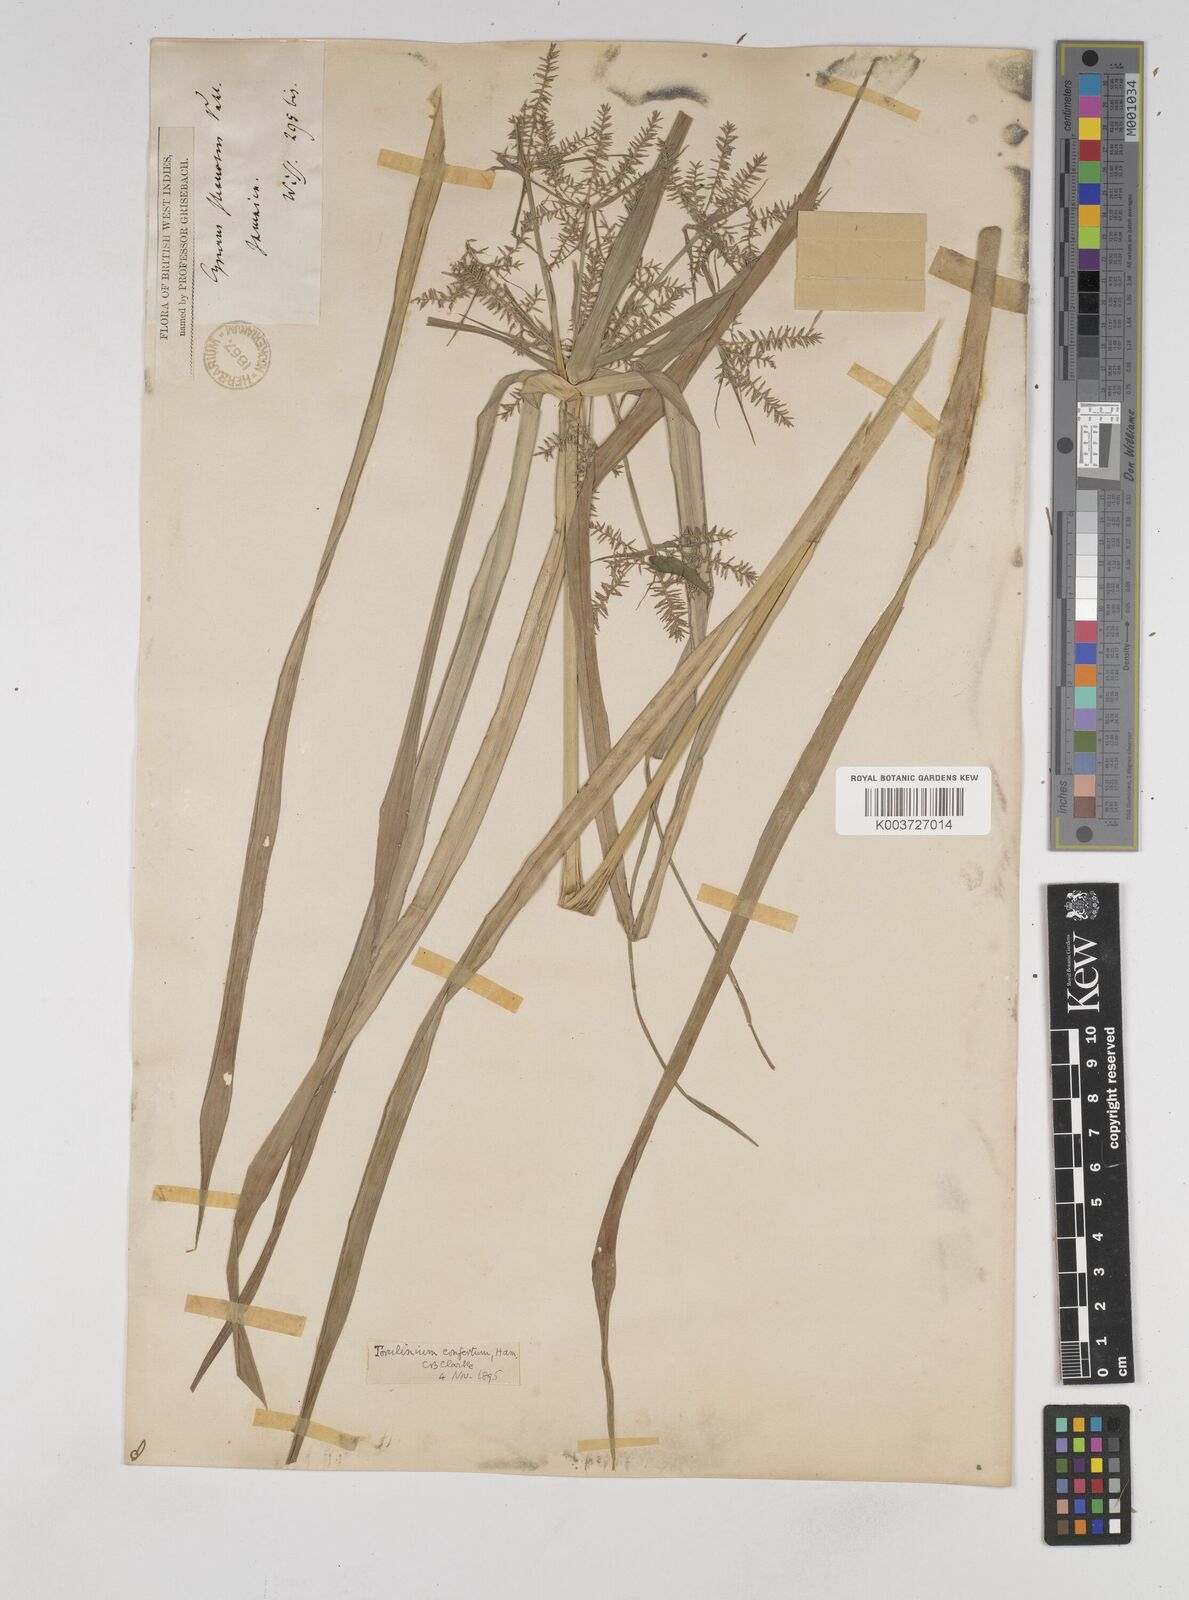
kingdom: Plantae
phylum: Tracheophyta
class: Liliopsida
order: Poales
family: Cyperaceae
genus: Cyperus
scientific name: Cyperus odoratus
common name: Fragrant flatsedge
